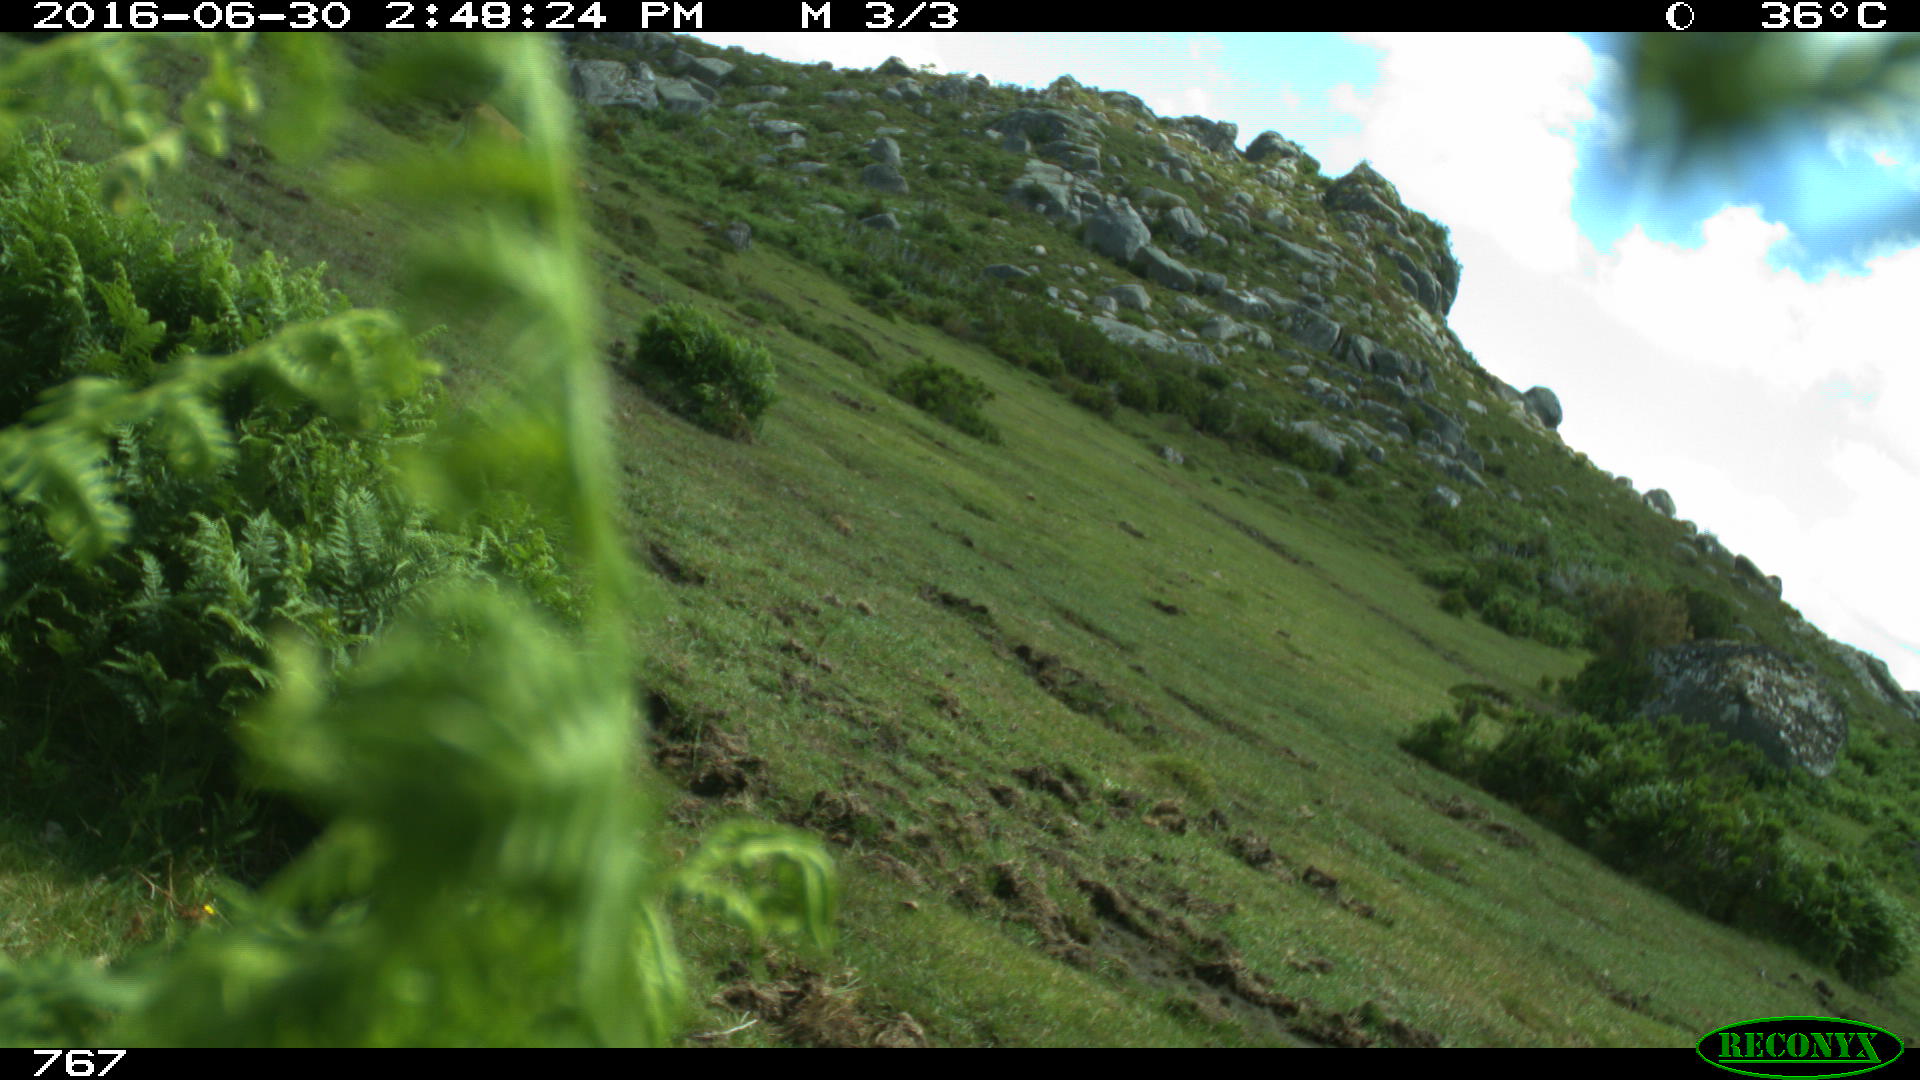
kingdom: Animalia
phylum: Chordata
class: Mammalia
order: Artiodactyla
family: Bovidae
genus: Bos
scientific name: Bos taurus
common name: Domesticated cattle
